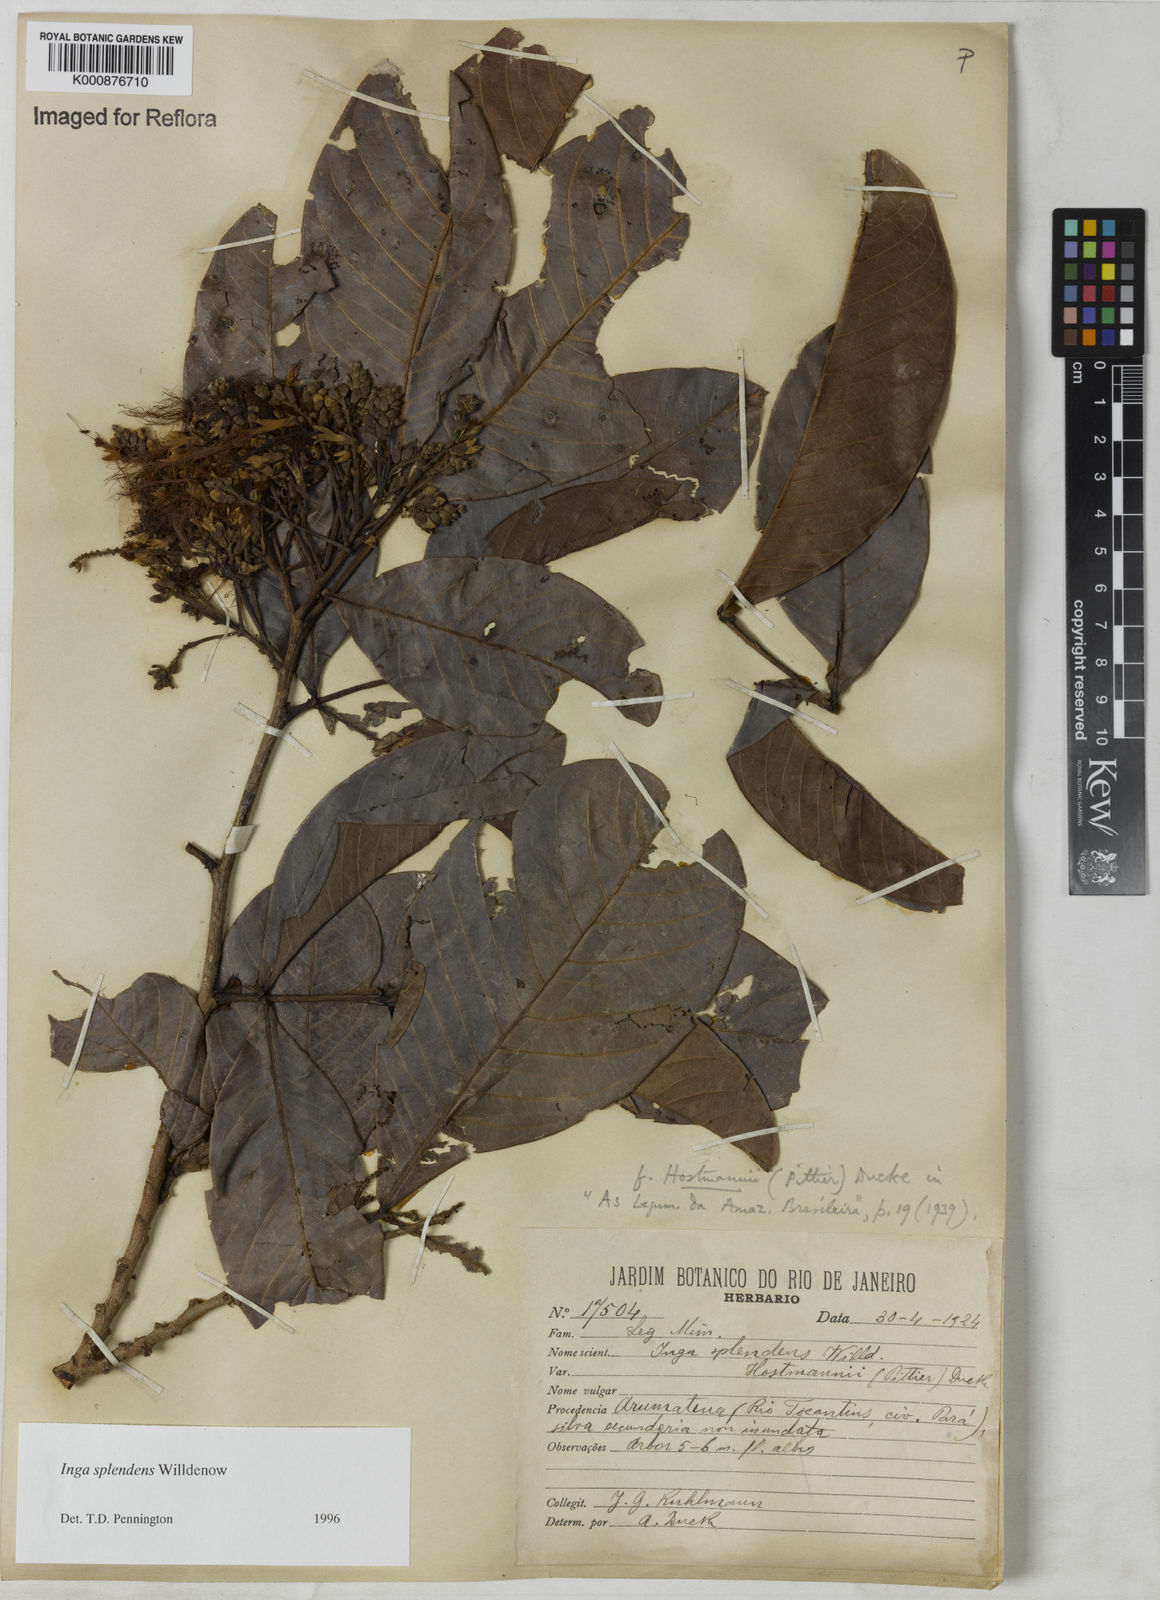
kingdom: Plantae
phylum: Tracheophyta
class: Magnoliopsida
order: Fabales
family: Fabaceae
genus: Inga
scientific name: Inga splendens
